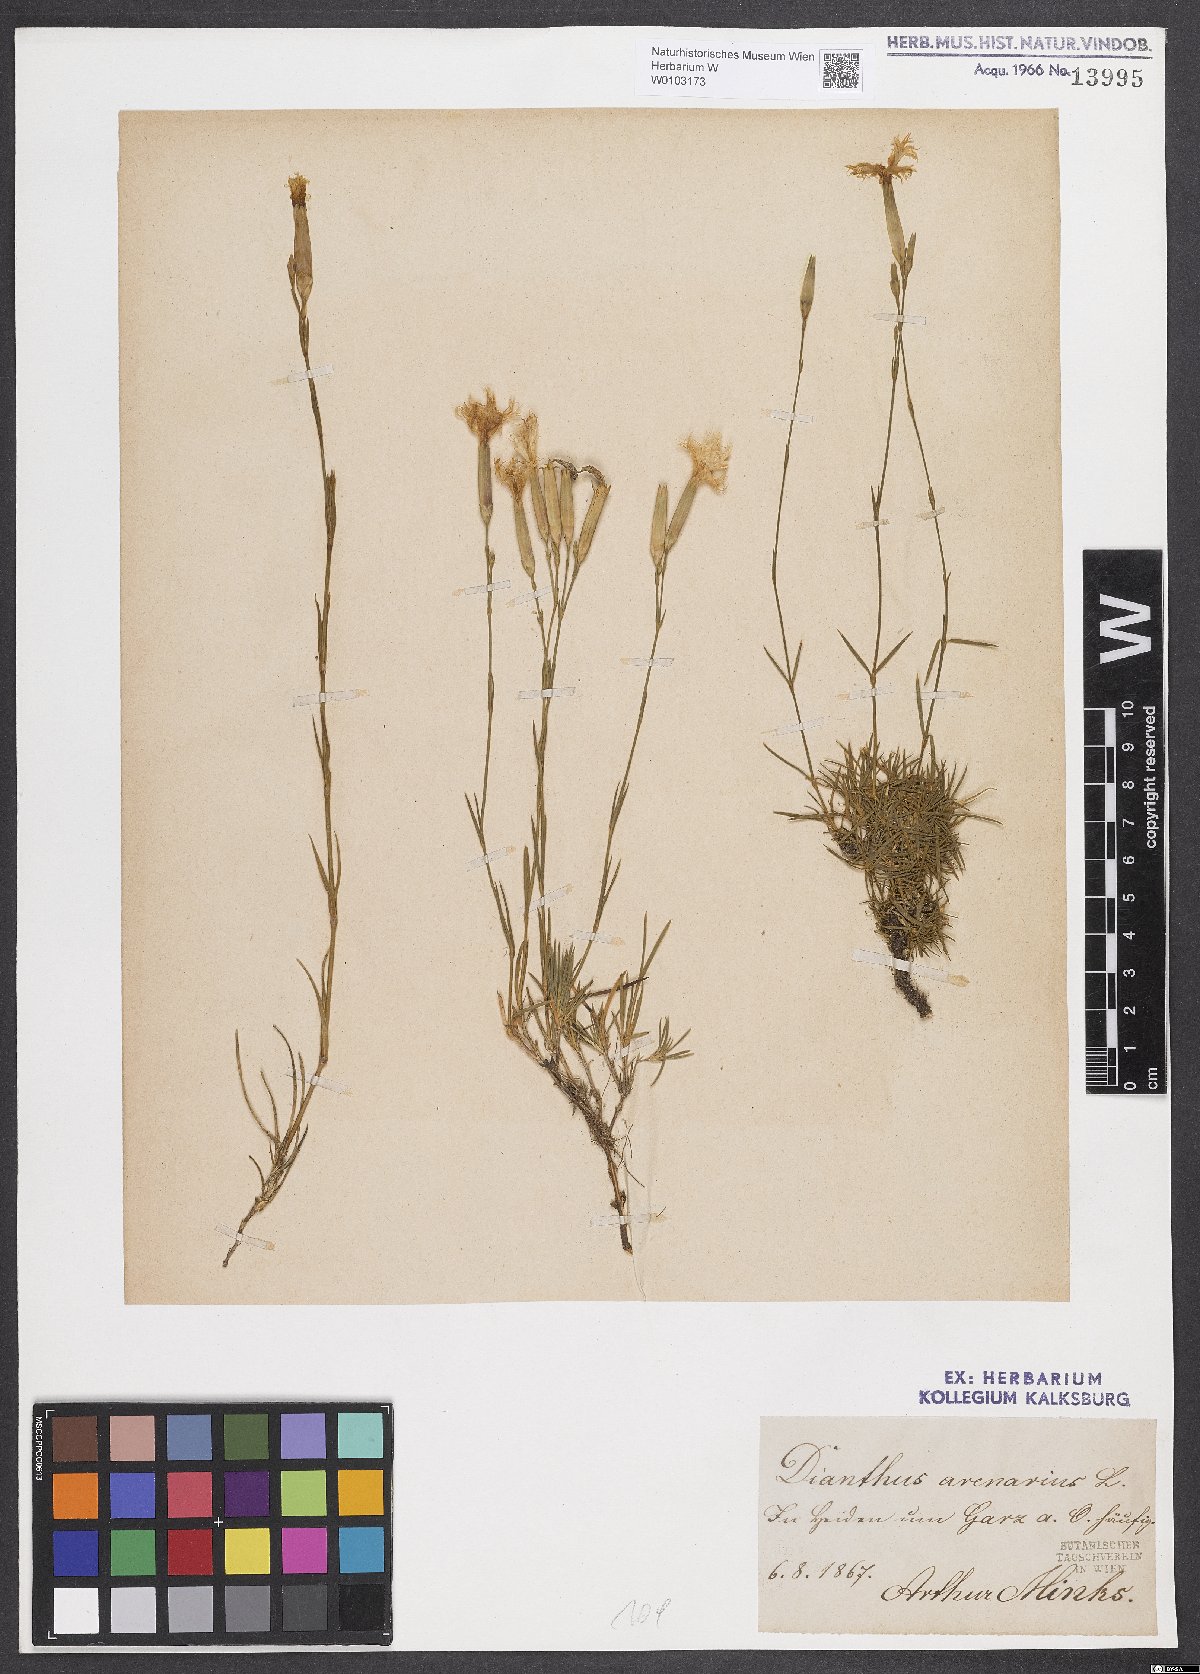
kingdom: Plantae
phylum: Tracheophyta
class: Magnoliopsida
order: Caryophyllales
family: Caryophyllaceae
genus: Dianthus
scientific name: Dianthus arenarius
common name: Stone pink
